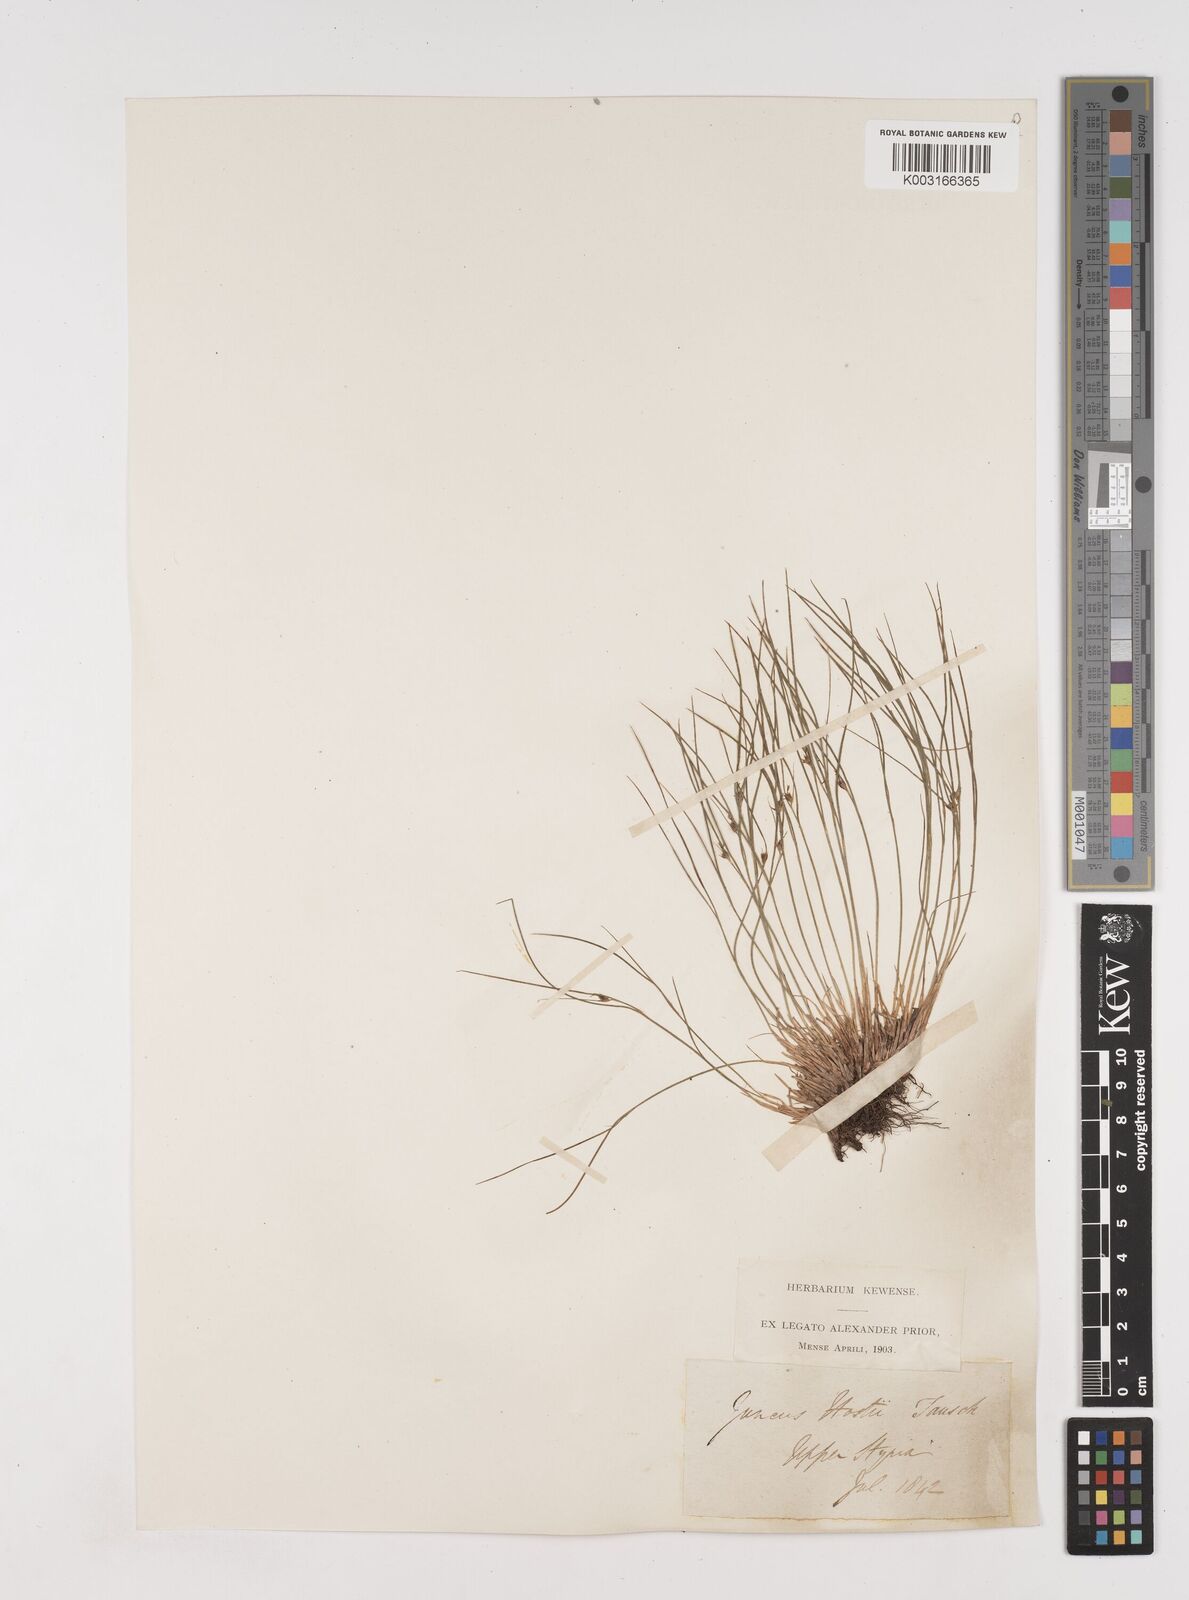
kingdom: Plantae
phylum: Tracheophyta
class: Liliopsida
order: Poales
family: Juncaceae
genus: Oreojuncus
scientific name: Oreojuncus trifidus
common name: Highland rush
